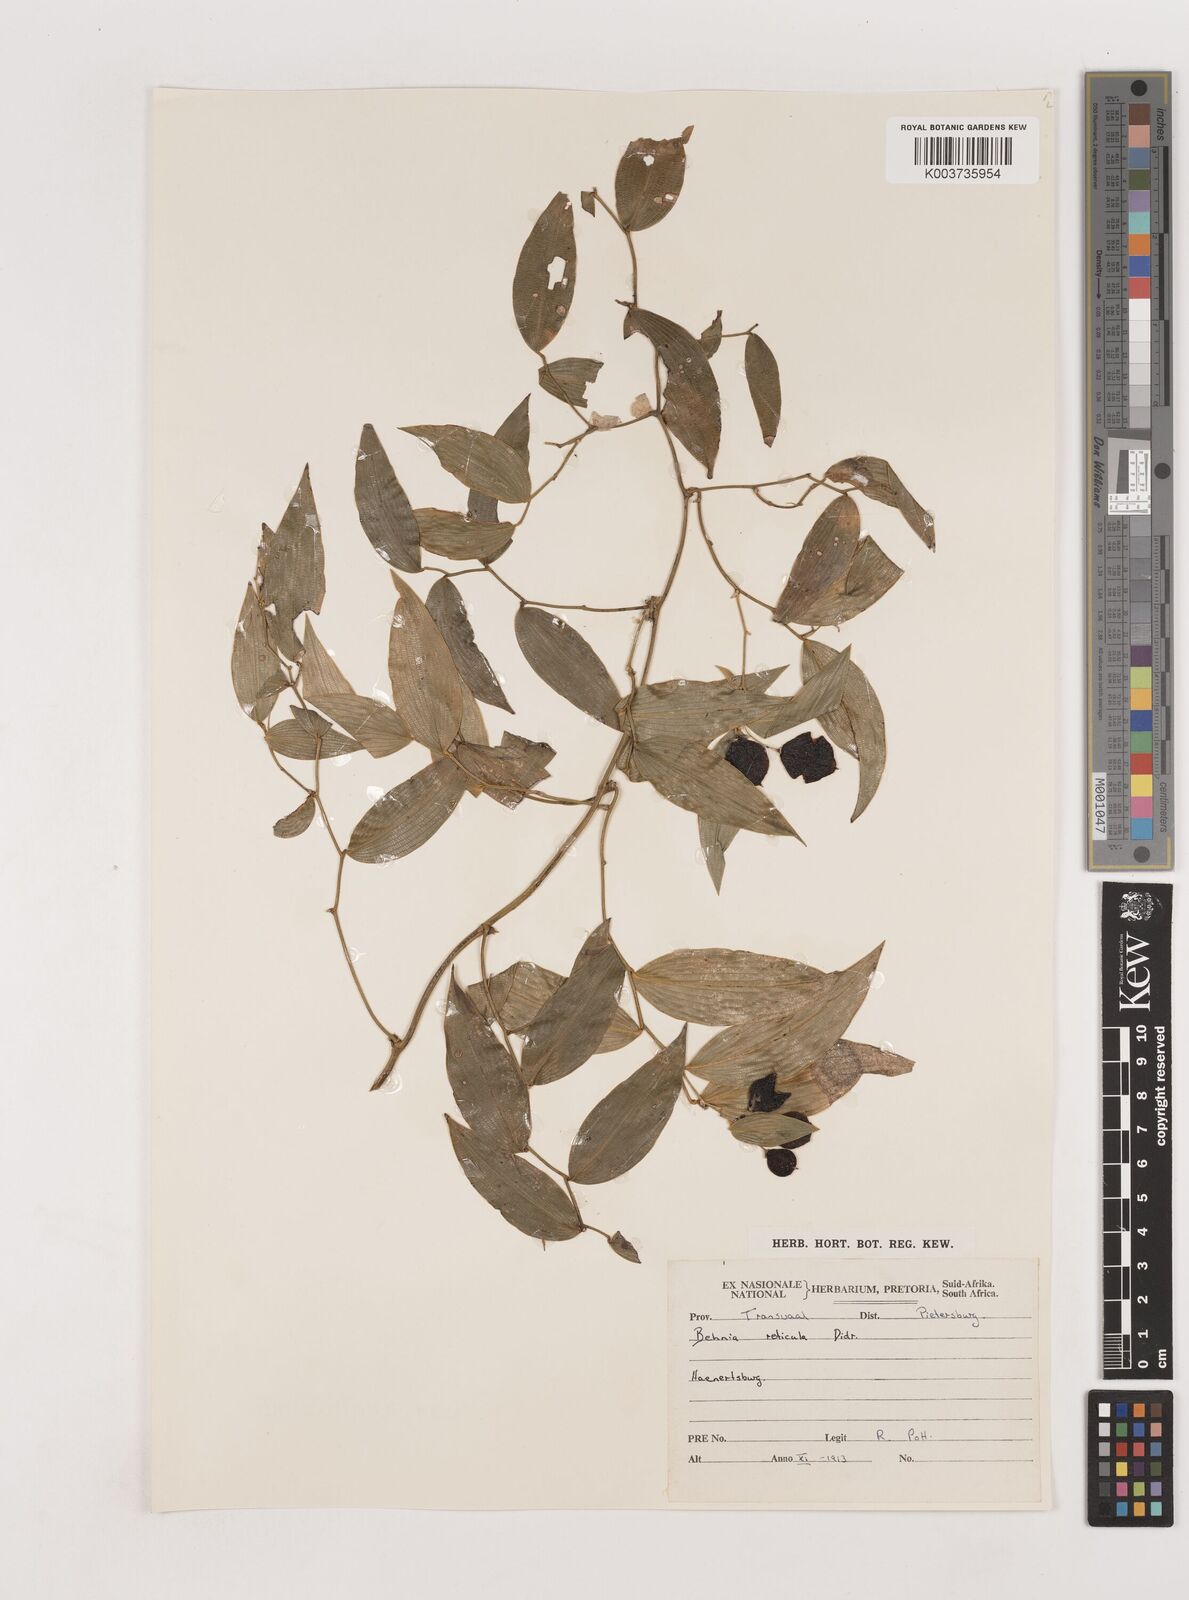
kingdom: Plantae
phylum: Tracheophyta
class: Liliopsida
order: Asparagales
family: Asparagaceae
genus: Behnia
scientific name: Behnia reticulata
